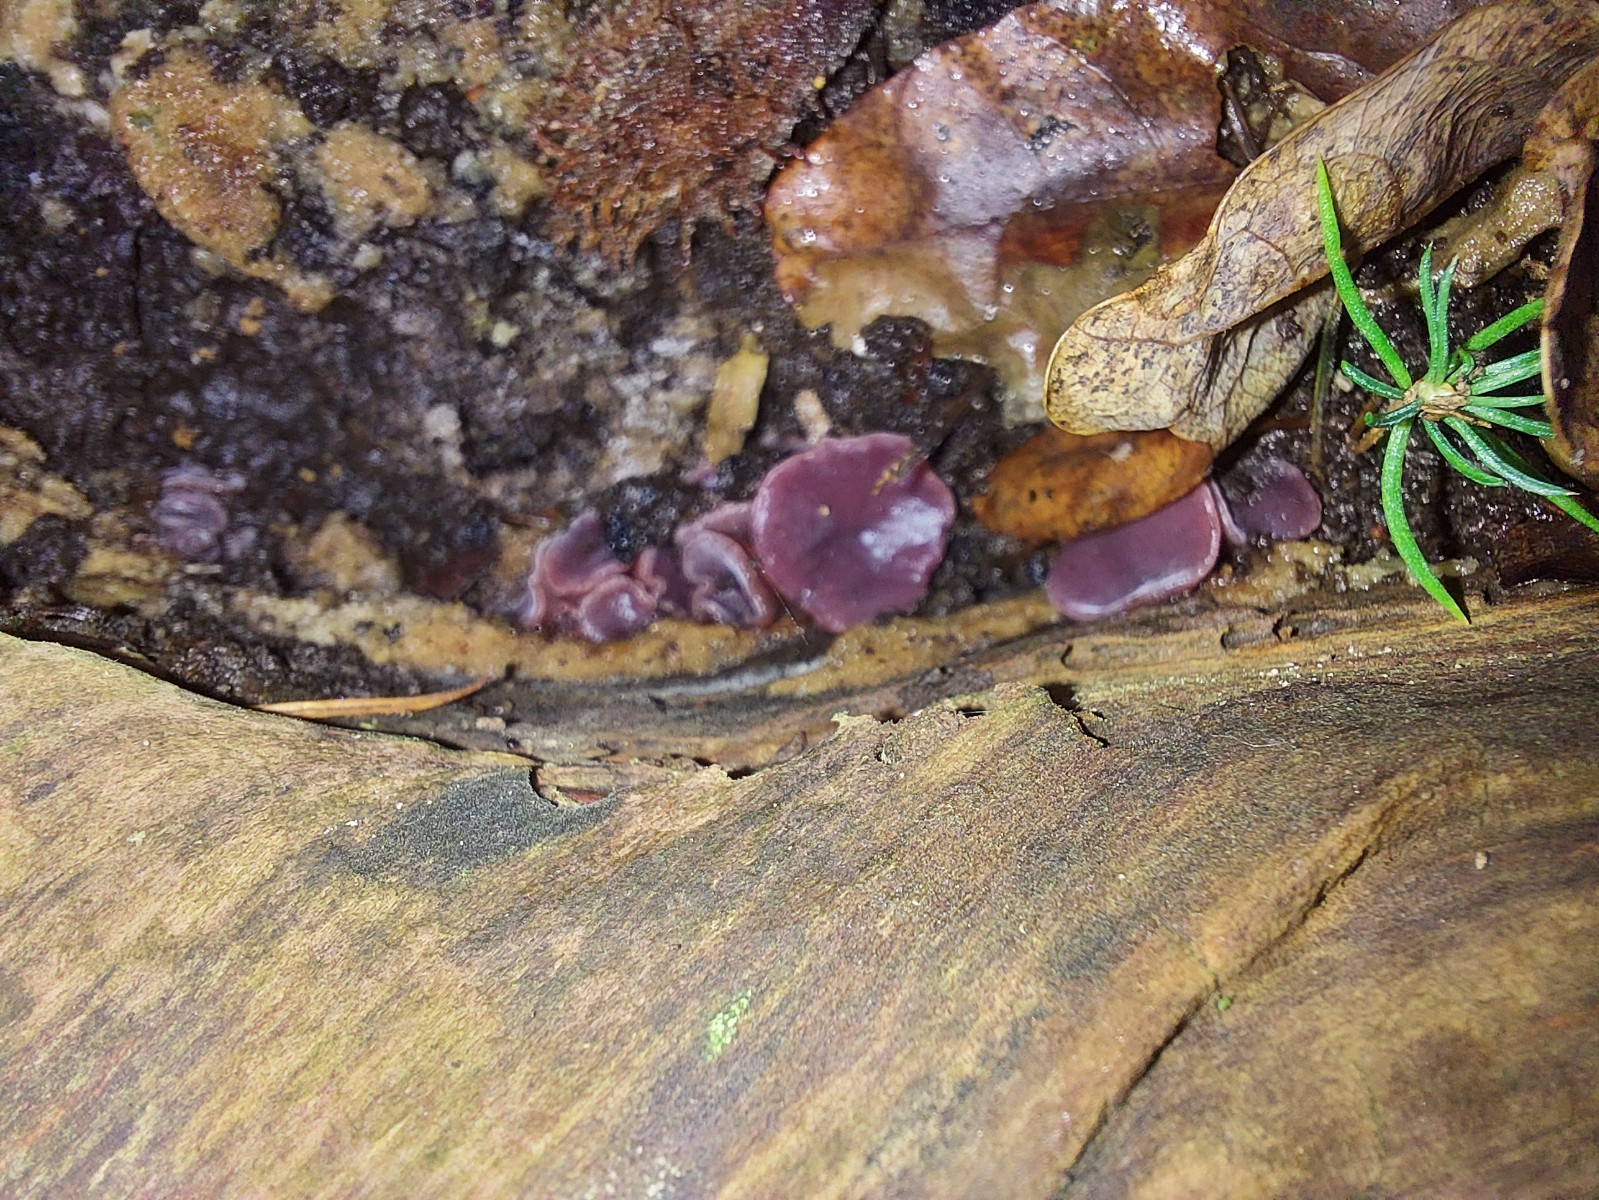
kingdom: Fungi
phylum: Ascomycota
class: Leotiomycetes
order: Helotiales
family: Gelatinodiscaceae
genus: Ascocoryne
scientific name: Ascocoryne cylichnium
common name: stor sejskive
